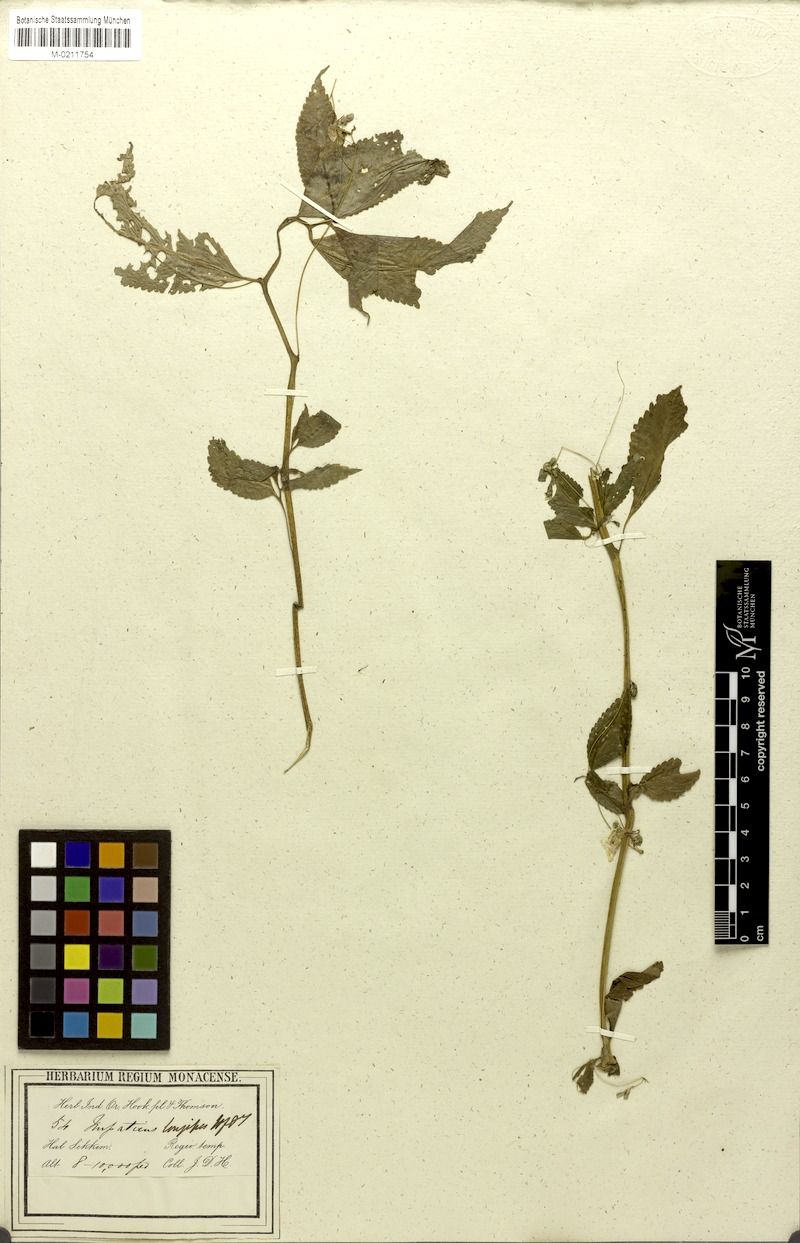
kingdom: Plantae
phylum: Tracheophyta
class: Magnoliopsida
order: Ericales
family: Balsaminaceae
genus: Impatiens
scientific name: Impatiens longipes
